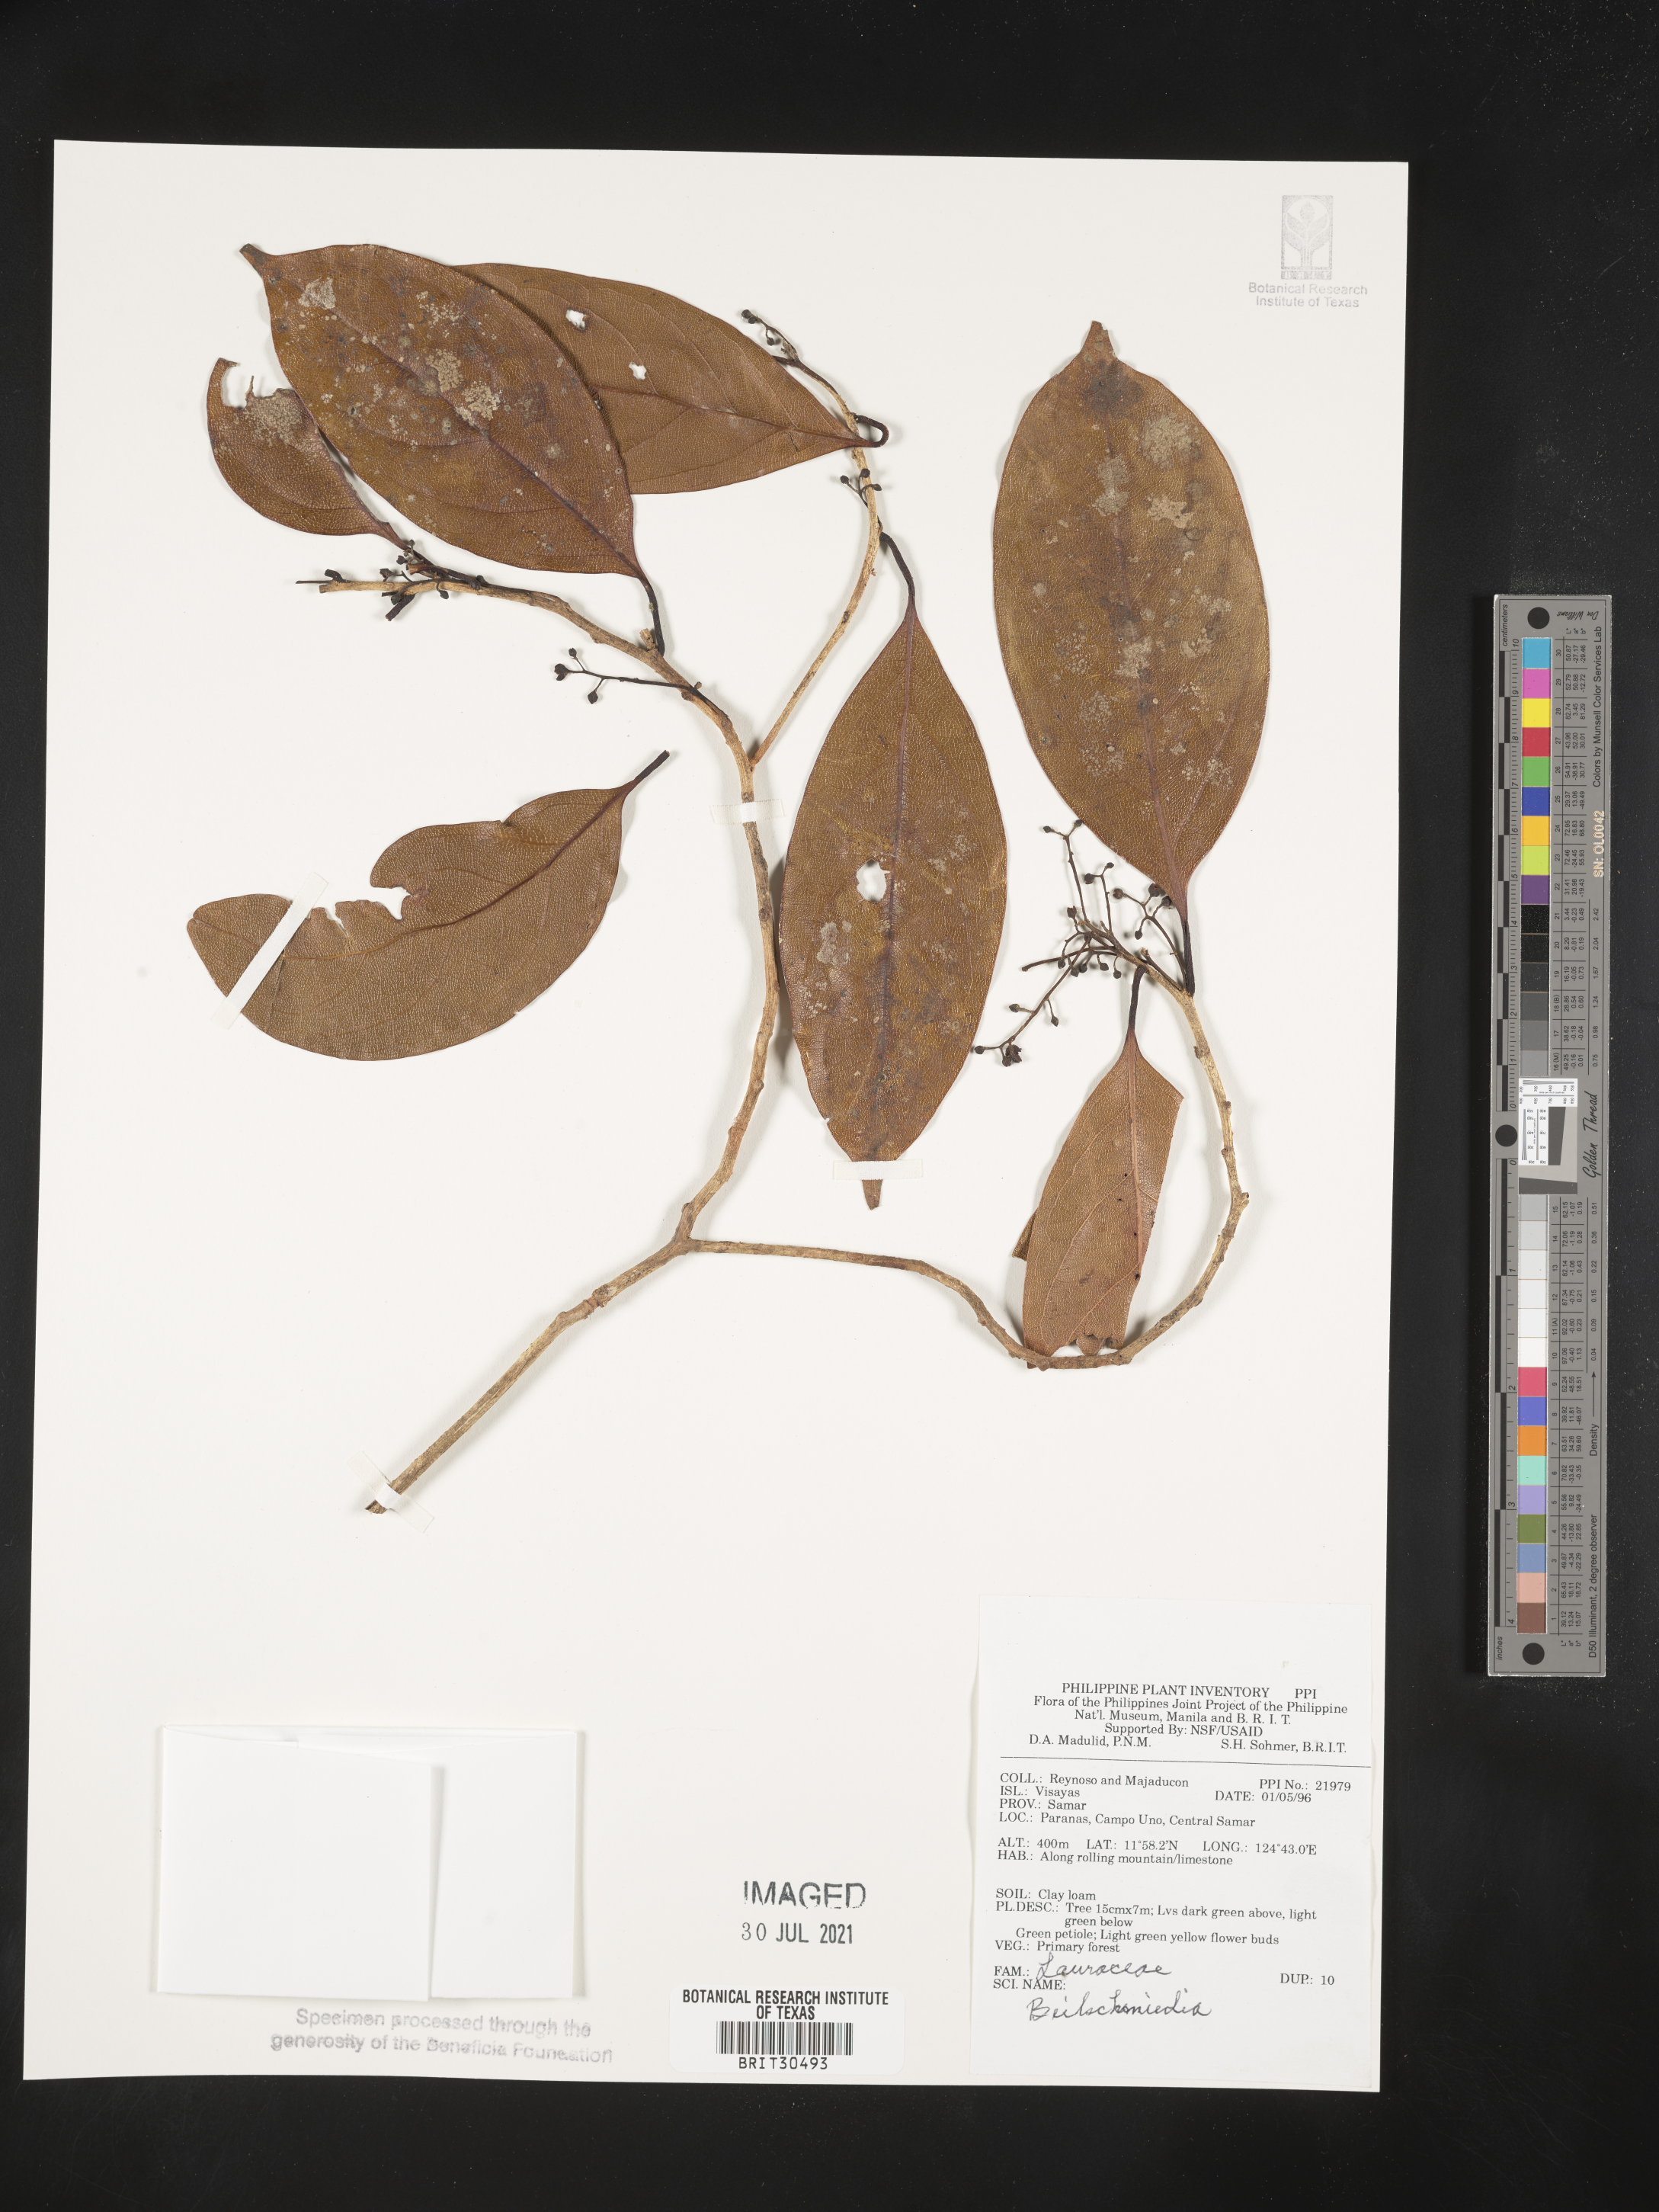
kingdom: Plantae
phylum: Tracheophyta
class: Magnoliopsida
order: Laurales
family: Lauraceae
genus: Beilschmiedia
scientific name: Beilschmiedia
